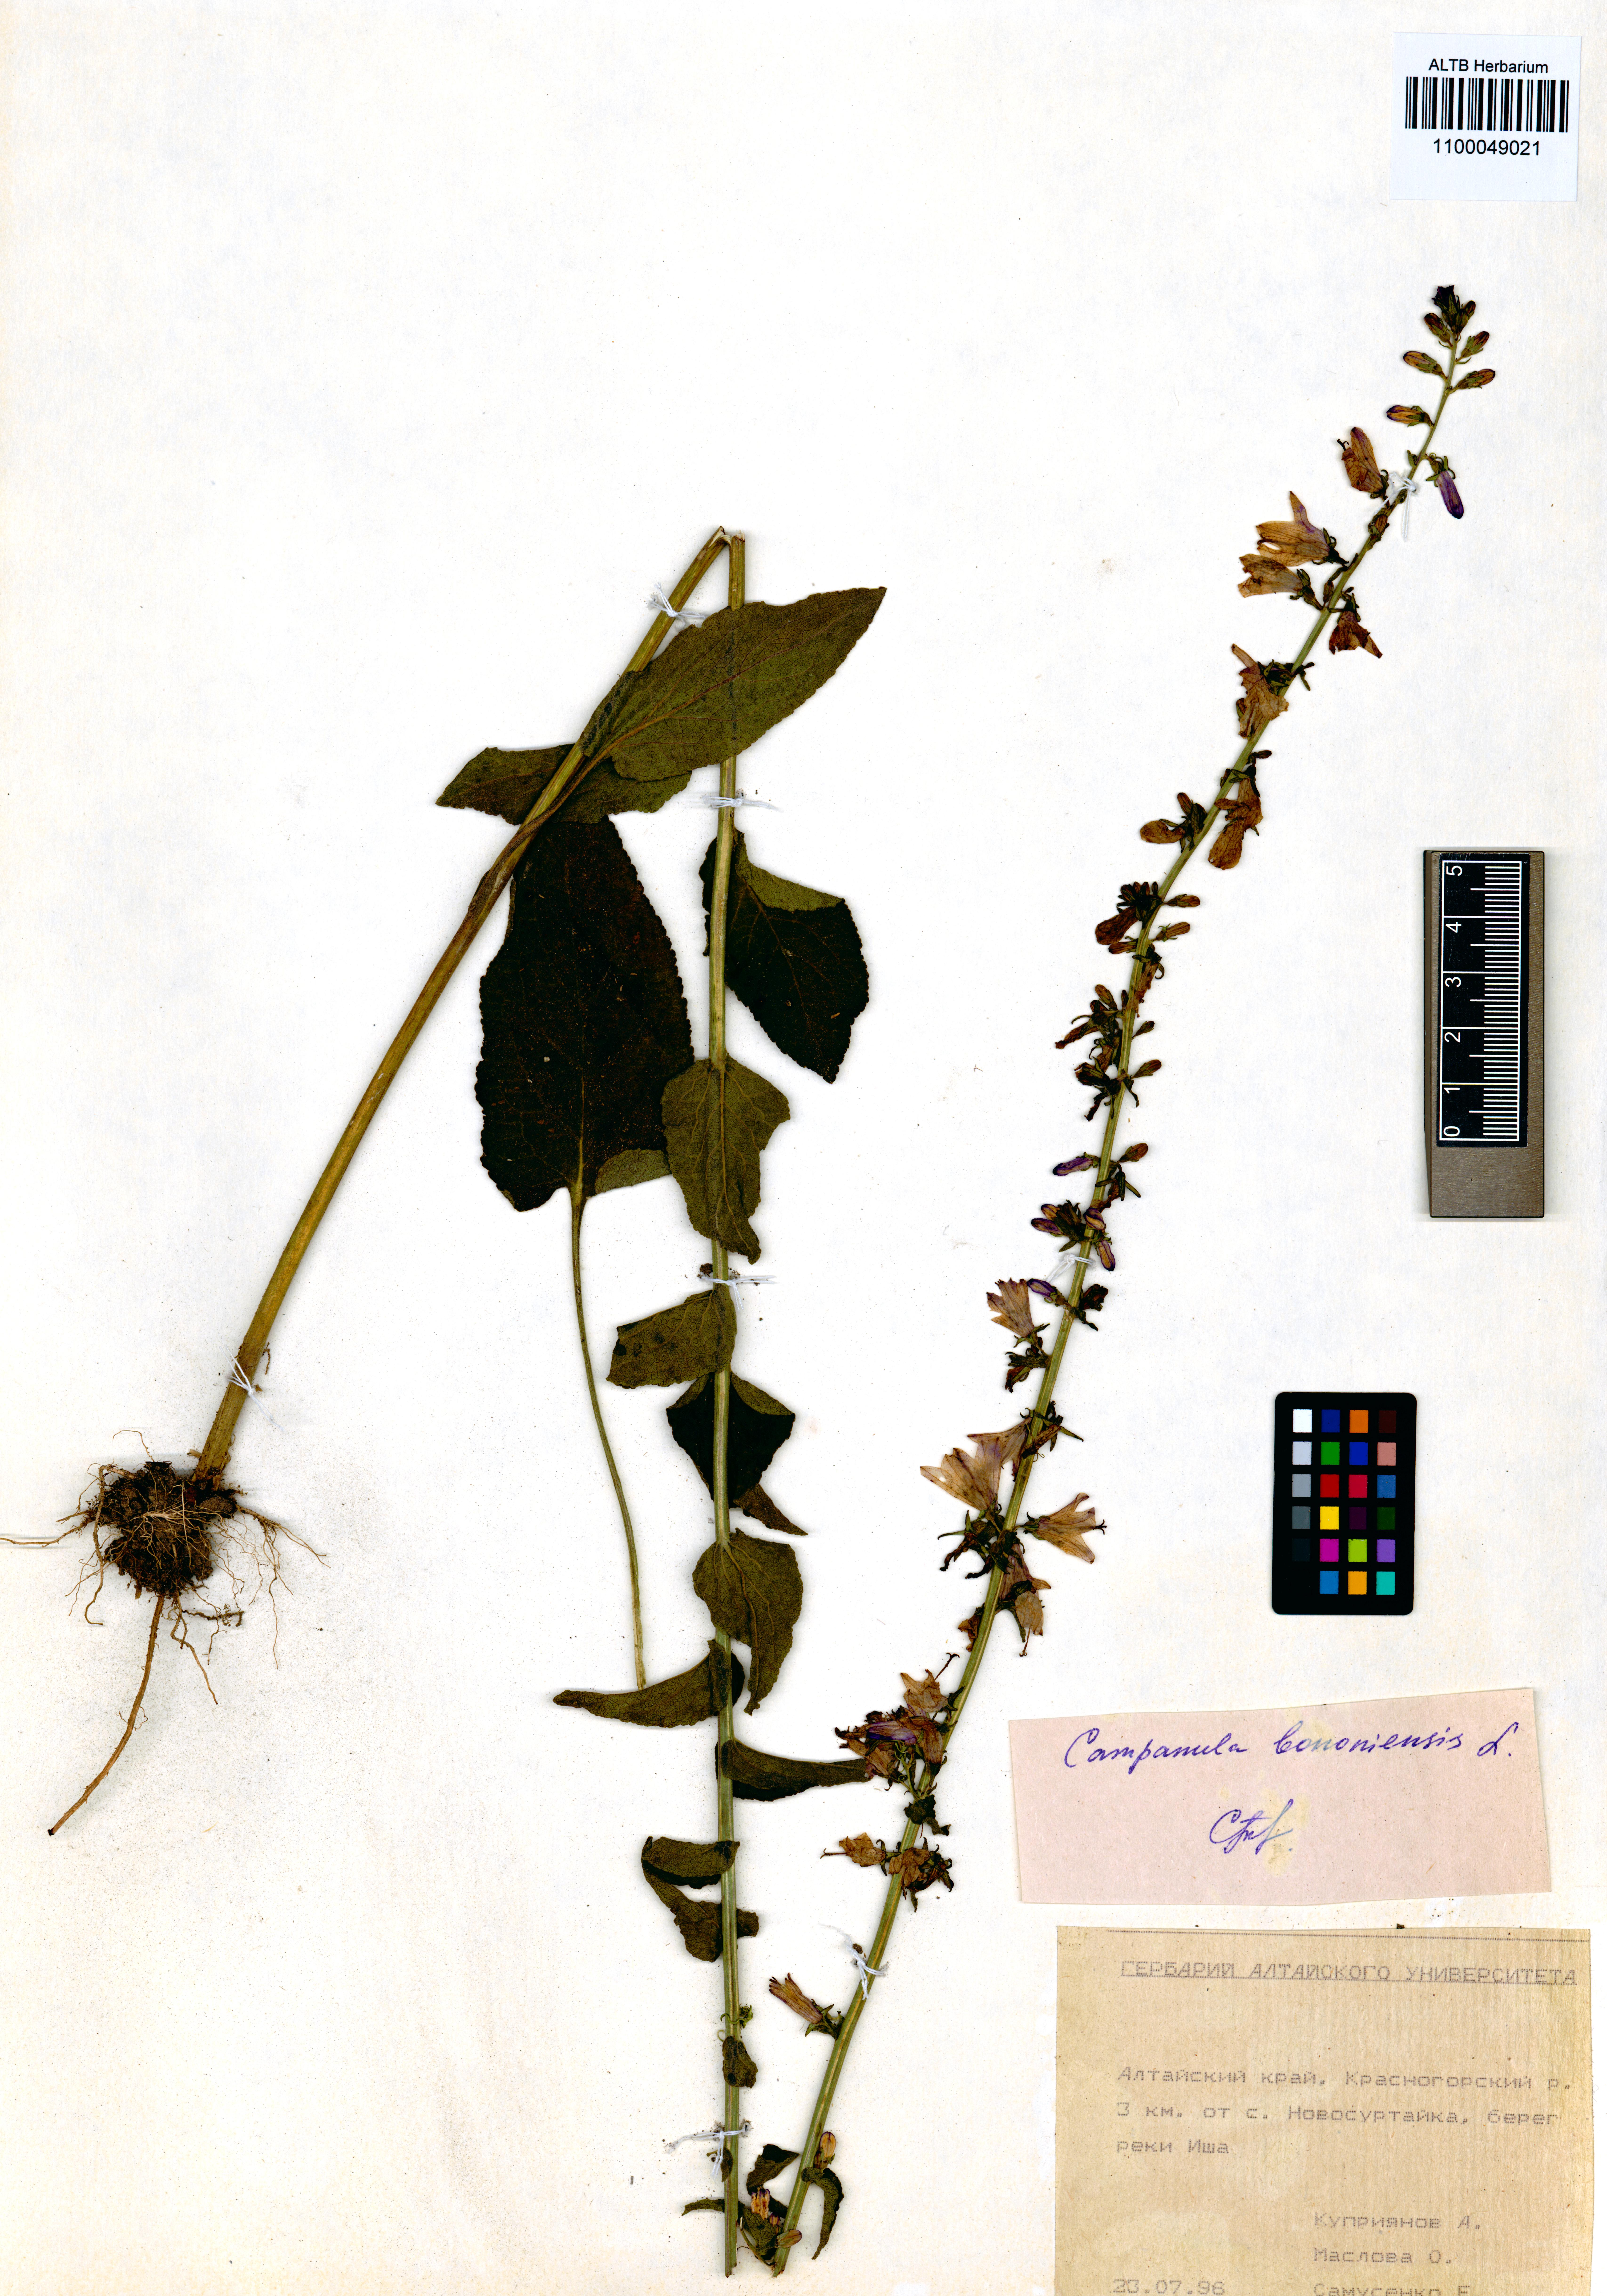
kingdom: Plantae
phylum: Tracheophyta
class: Magnoliopsida
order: Asterales
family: Campanulaceae
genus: Campanula
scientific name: Campanula bononiensis
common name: Pale bellflower
